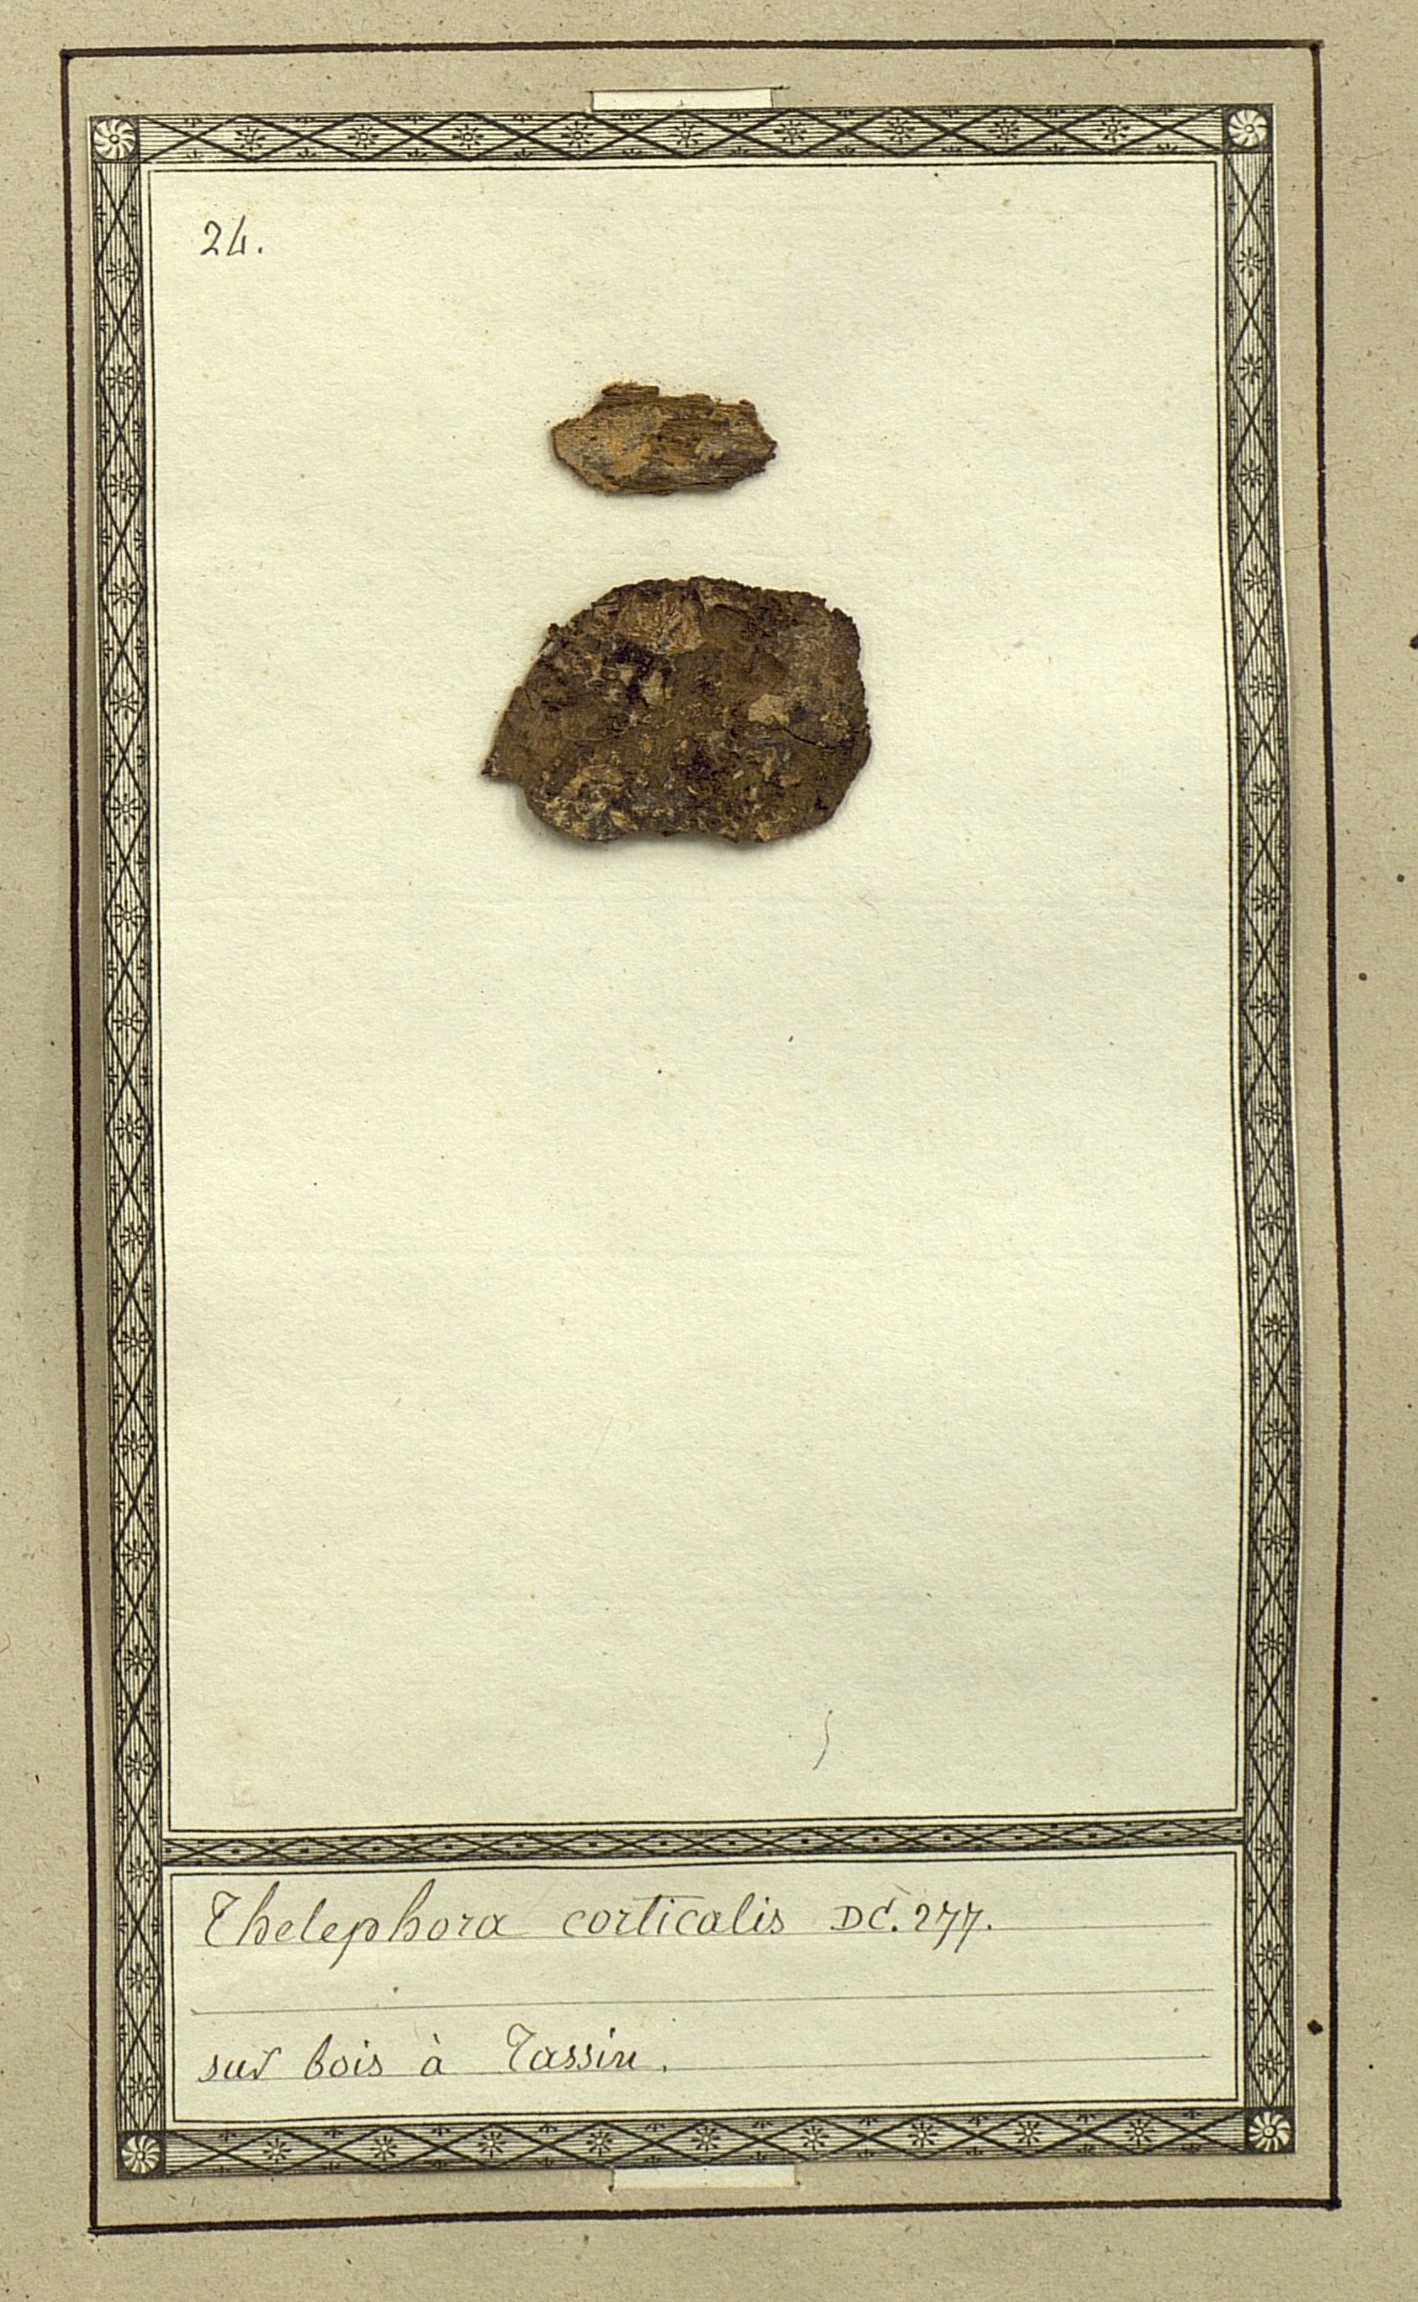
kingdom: Fungi
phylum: Basidiomycota
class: Agaricomycetes
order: Thelephorales
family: Thelephoraceae
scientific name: Thelephoraceae
